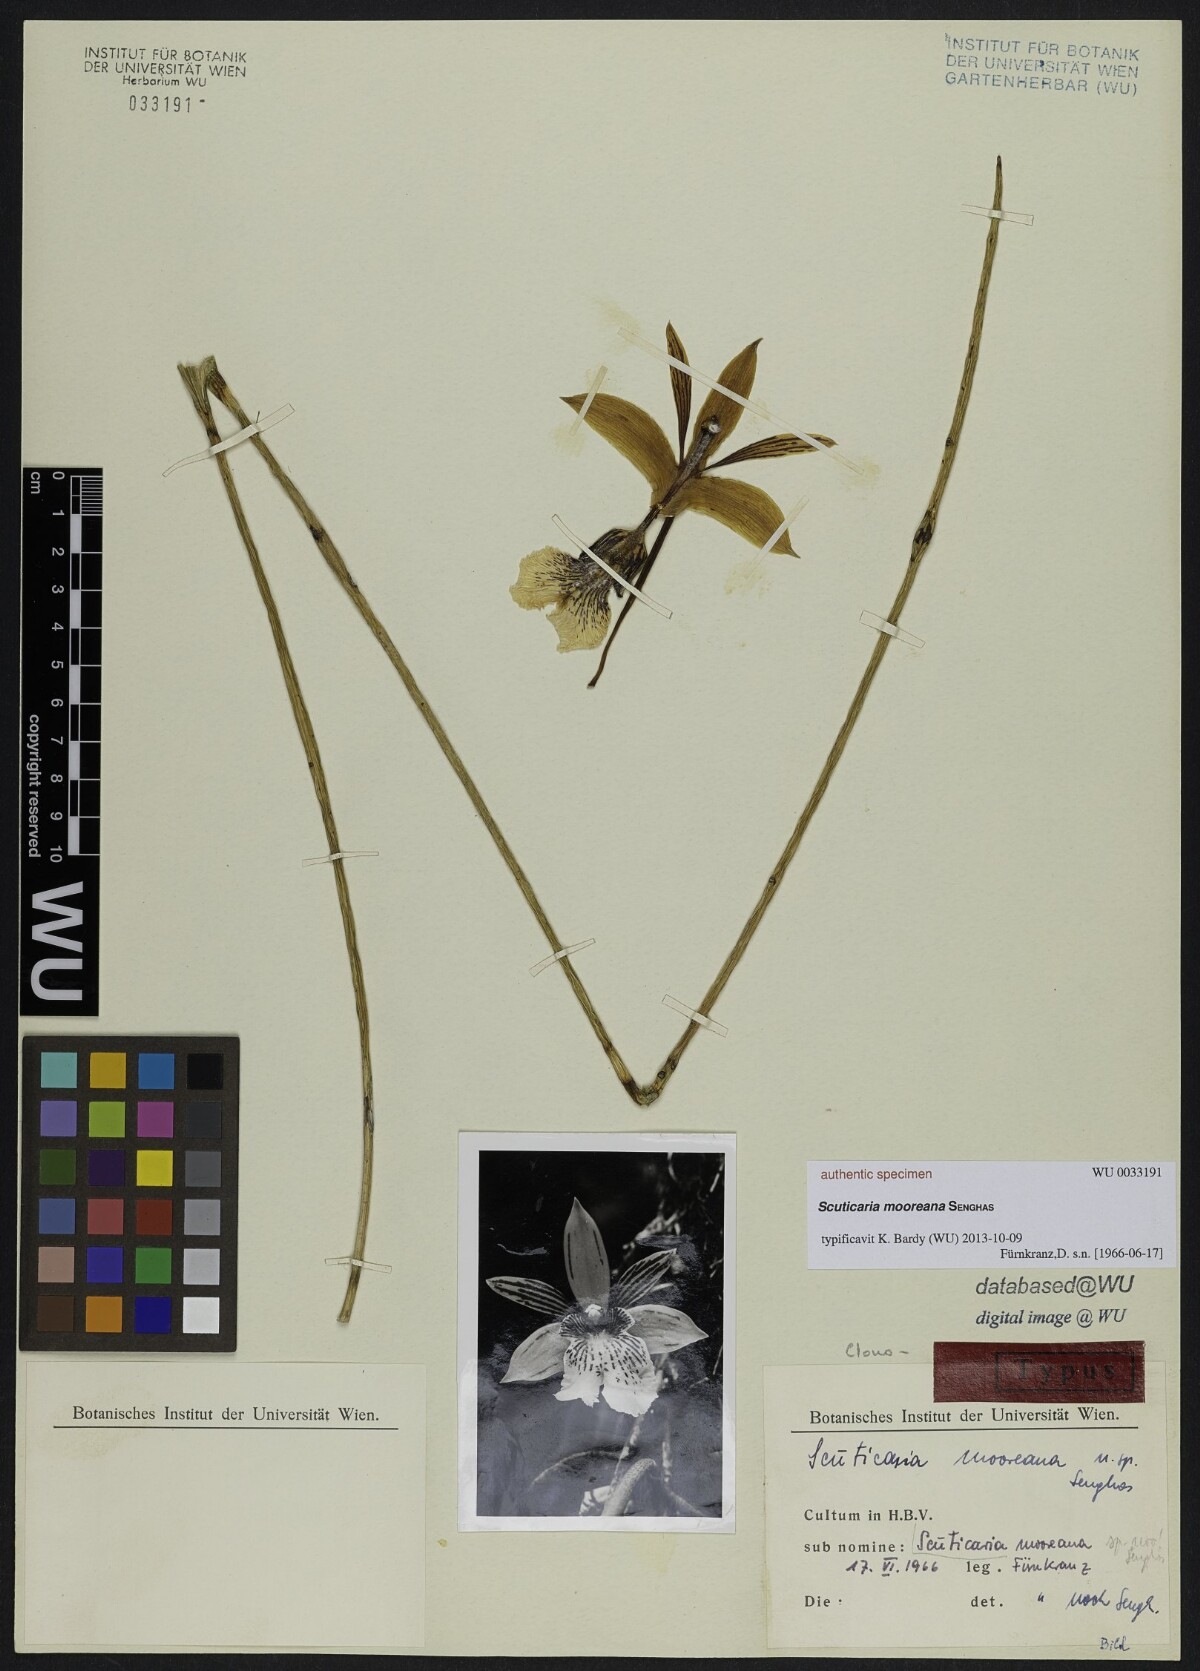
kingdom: Plantae
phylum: Tracheophyta
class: Liliopsida
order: Asparagales
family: Orchidaceae
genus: Scuticaria
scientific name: Scuticaria
